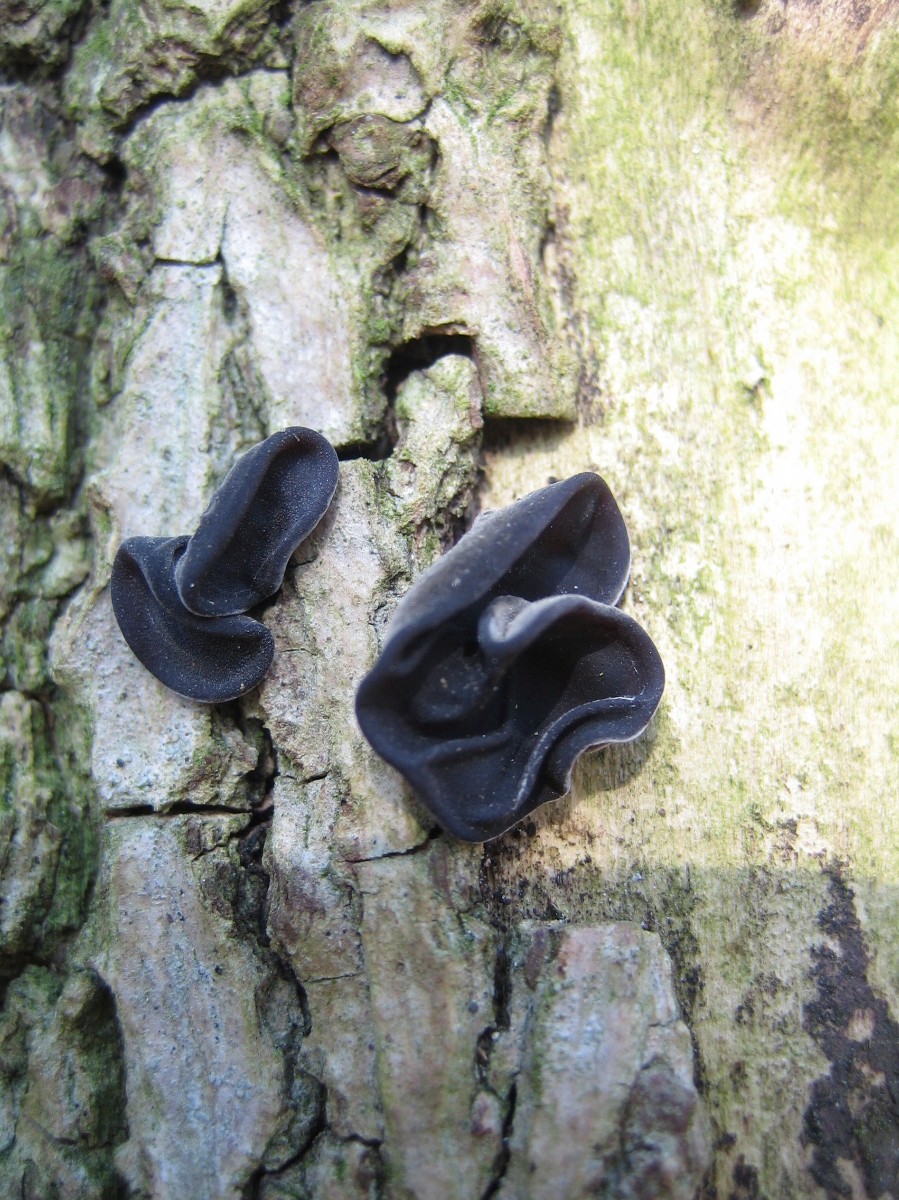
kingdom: Fungi
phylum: Basidiomycota
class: Agaricomycetes
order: Auriculariales
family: Auriculariaceae
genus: Auricularia
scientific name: Auricularia auricula-judae
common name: almindelig judasøre
